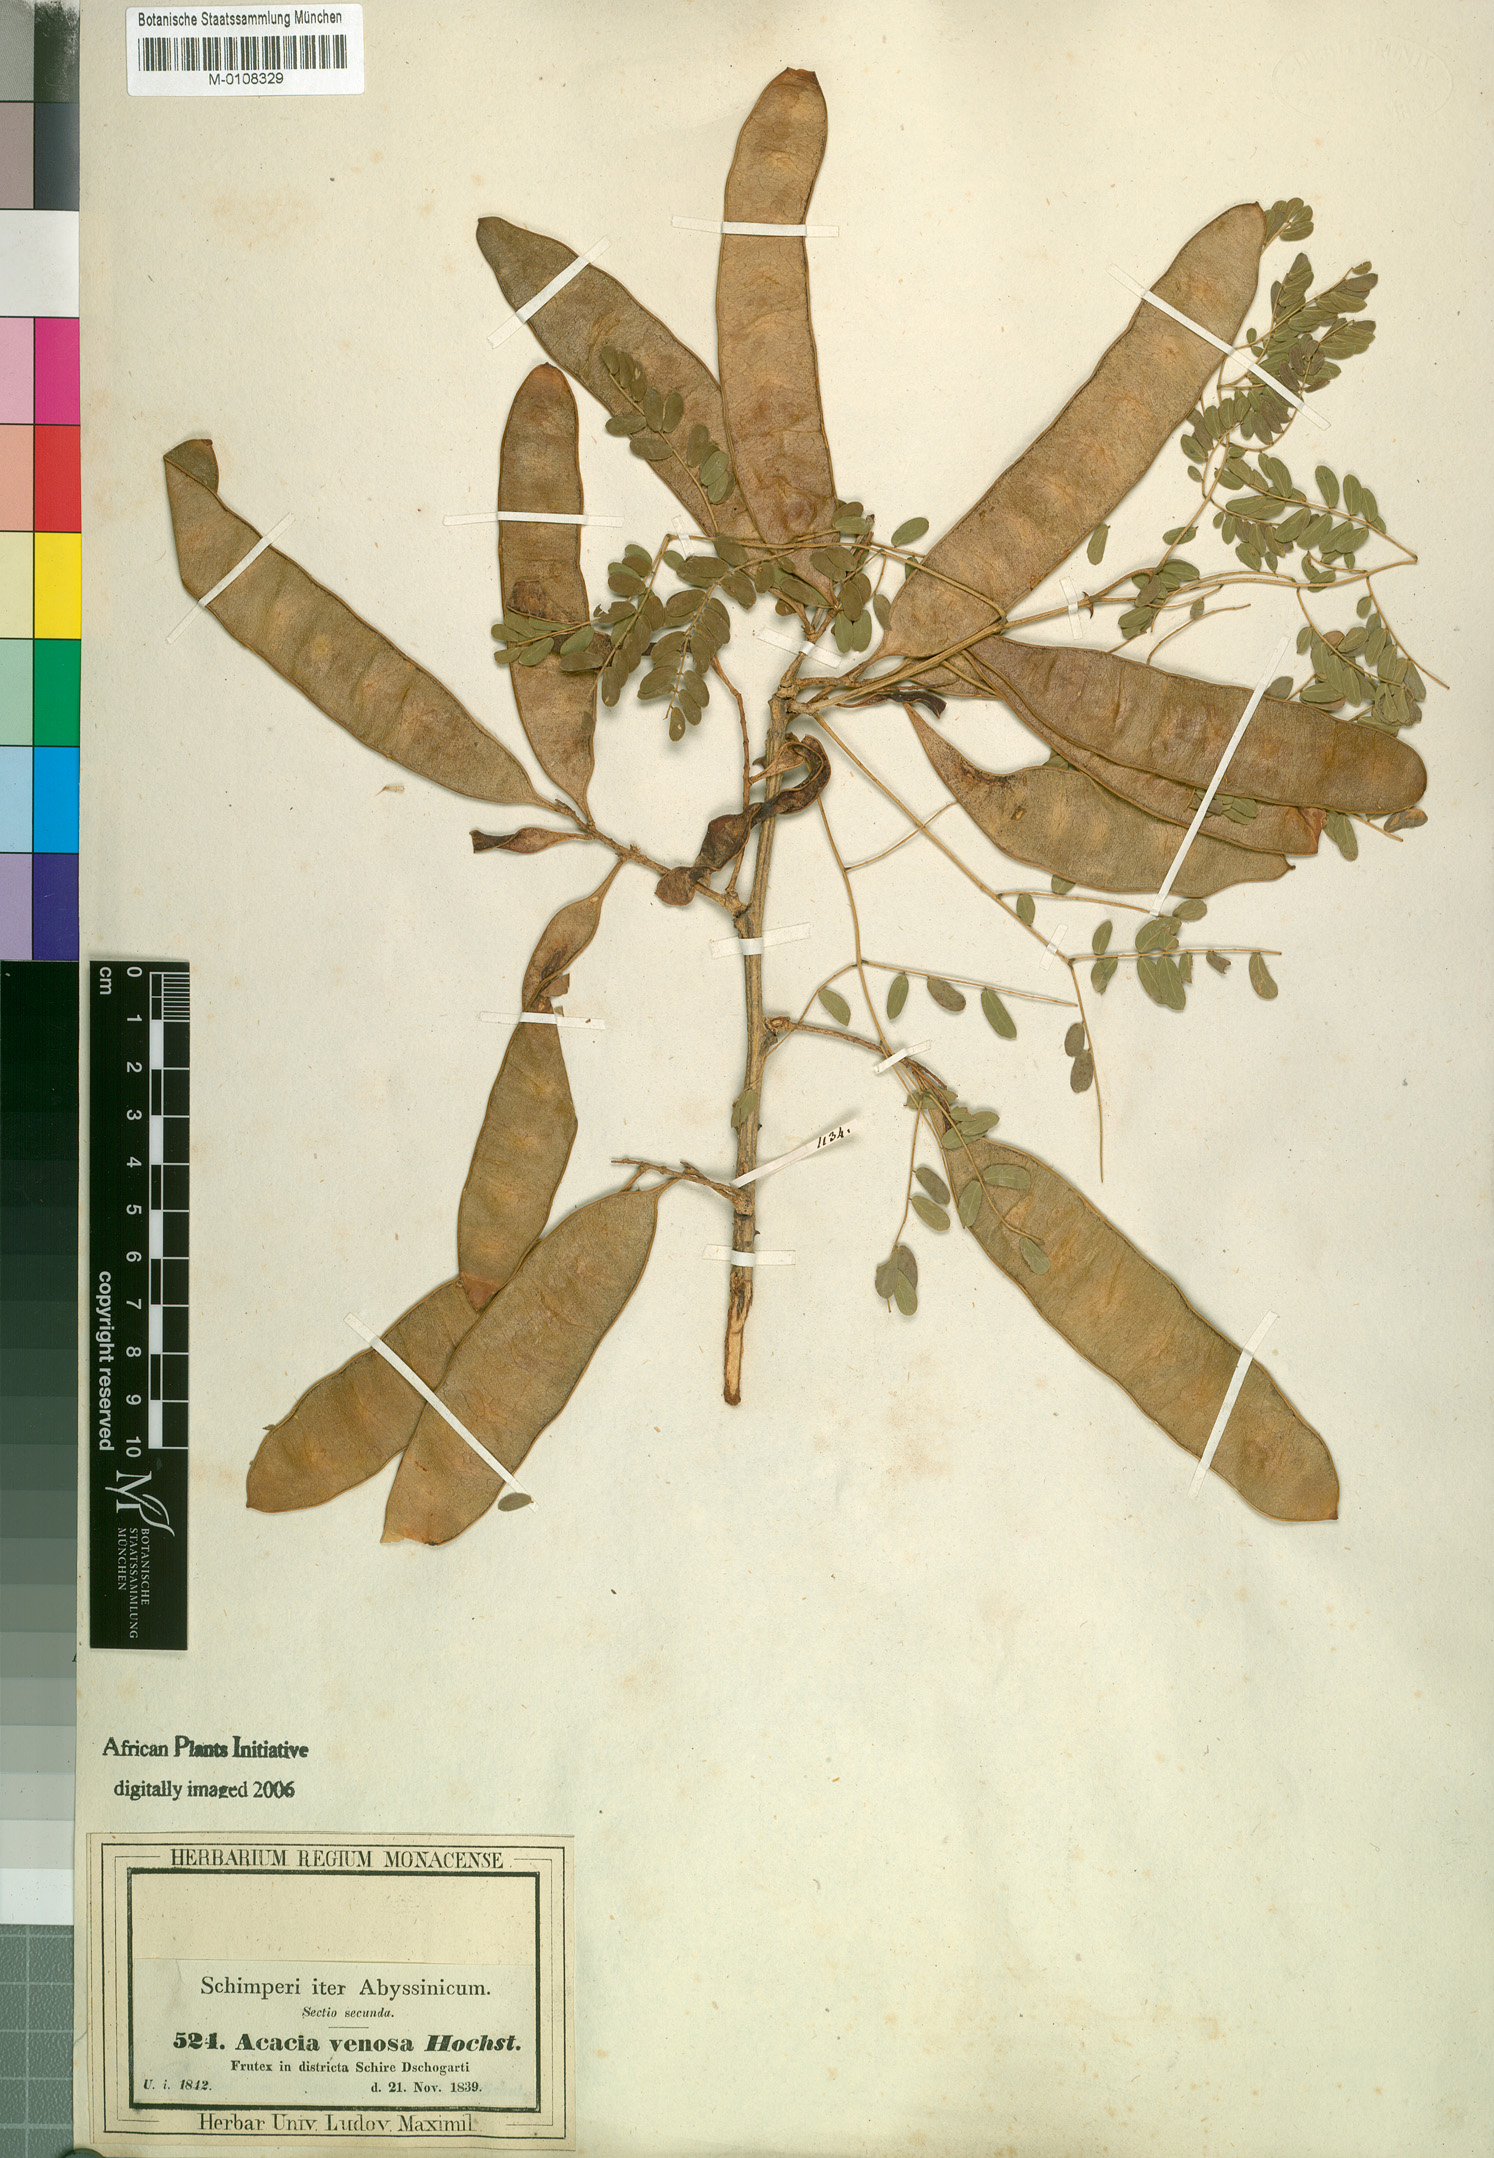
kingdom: Plantae
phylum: Tracheophyta
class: Magnoliopsida
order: Fabales
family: Fabaceae
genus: Senegalia
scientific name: Senegalia venosa
